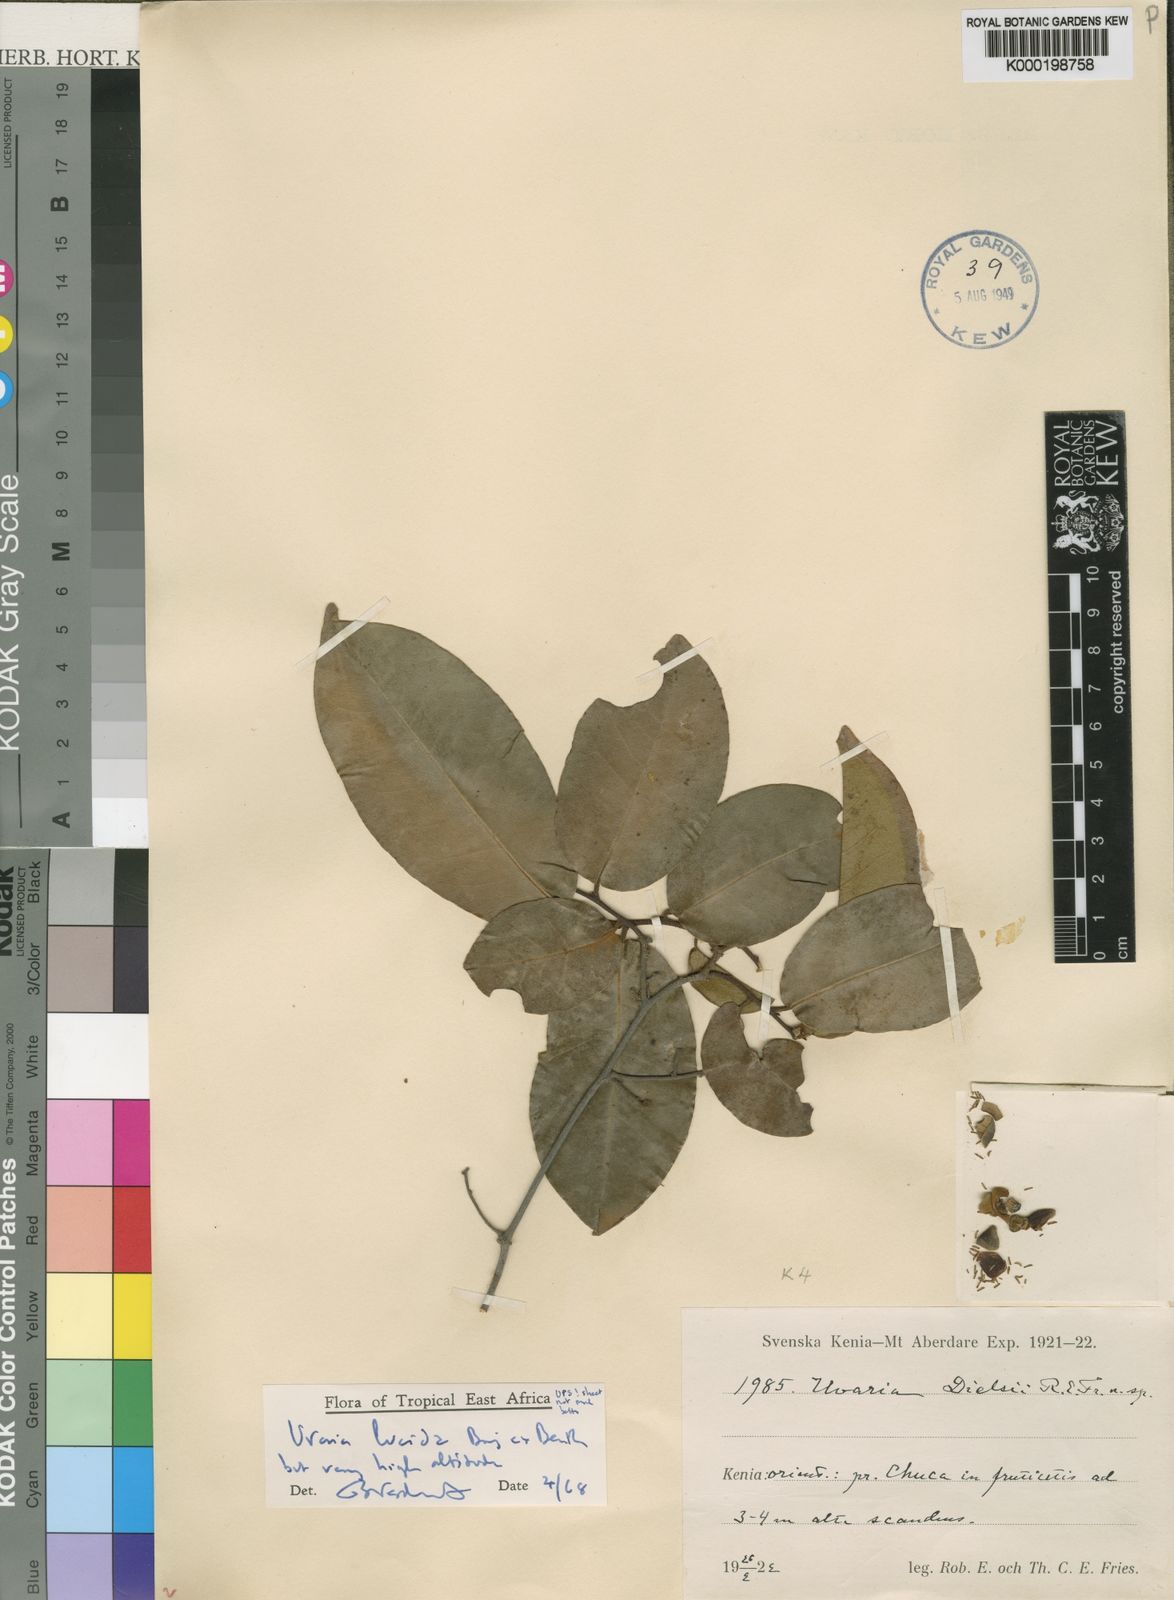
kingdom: Plantae
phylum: Tracheophyta
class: Magnoliopsida
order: Magnoliales
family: Annonaceae
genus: Uvaria
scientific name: Uvaria lucida
